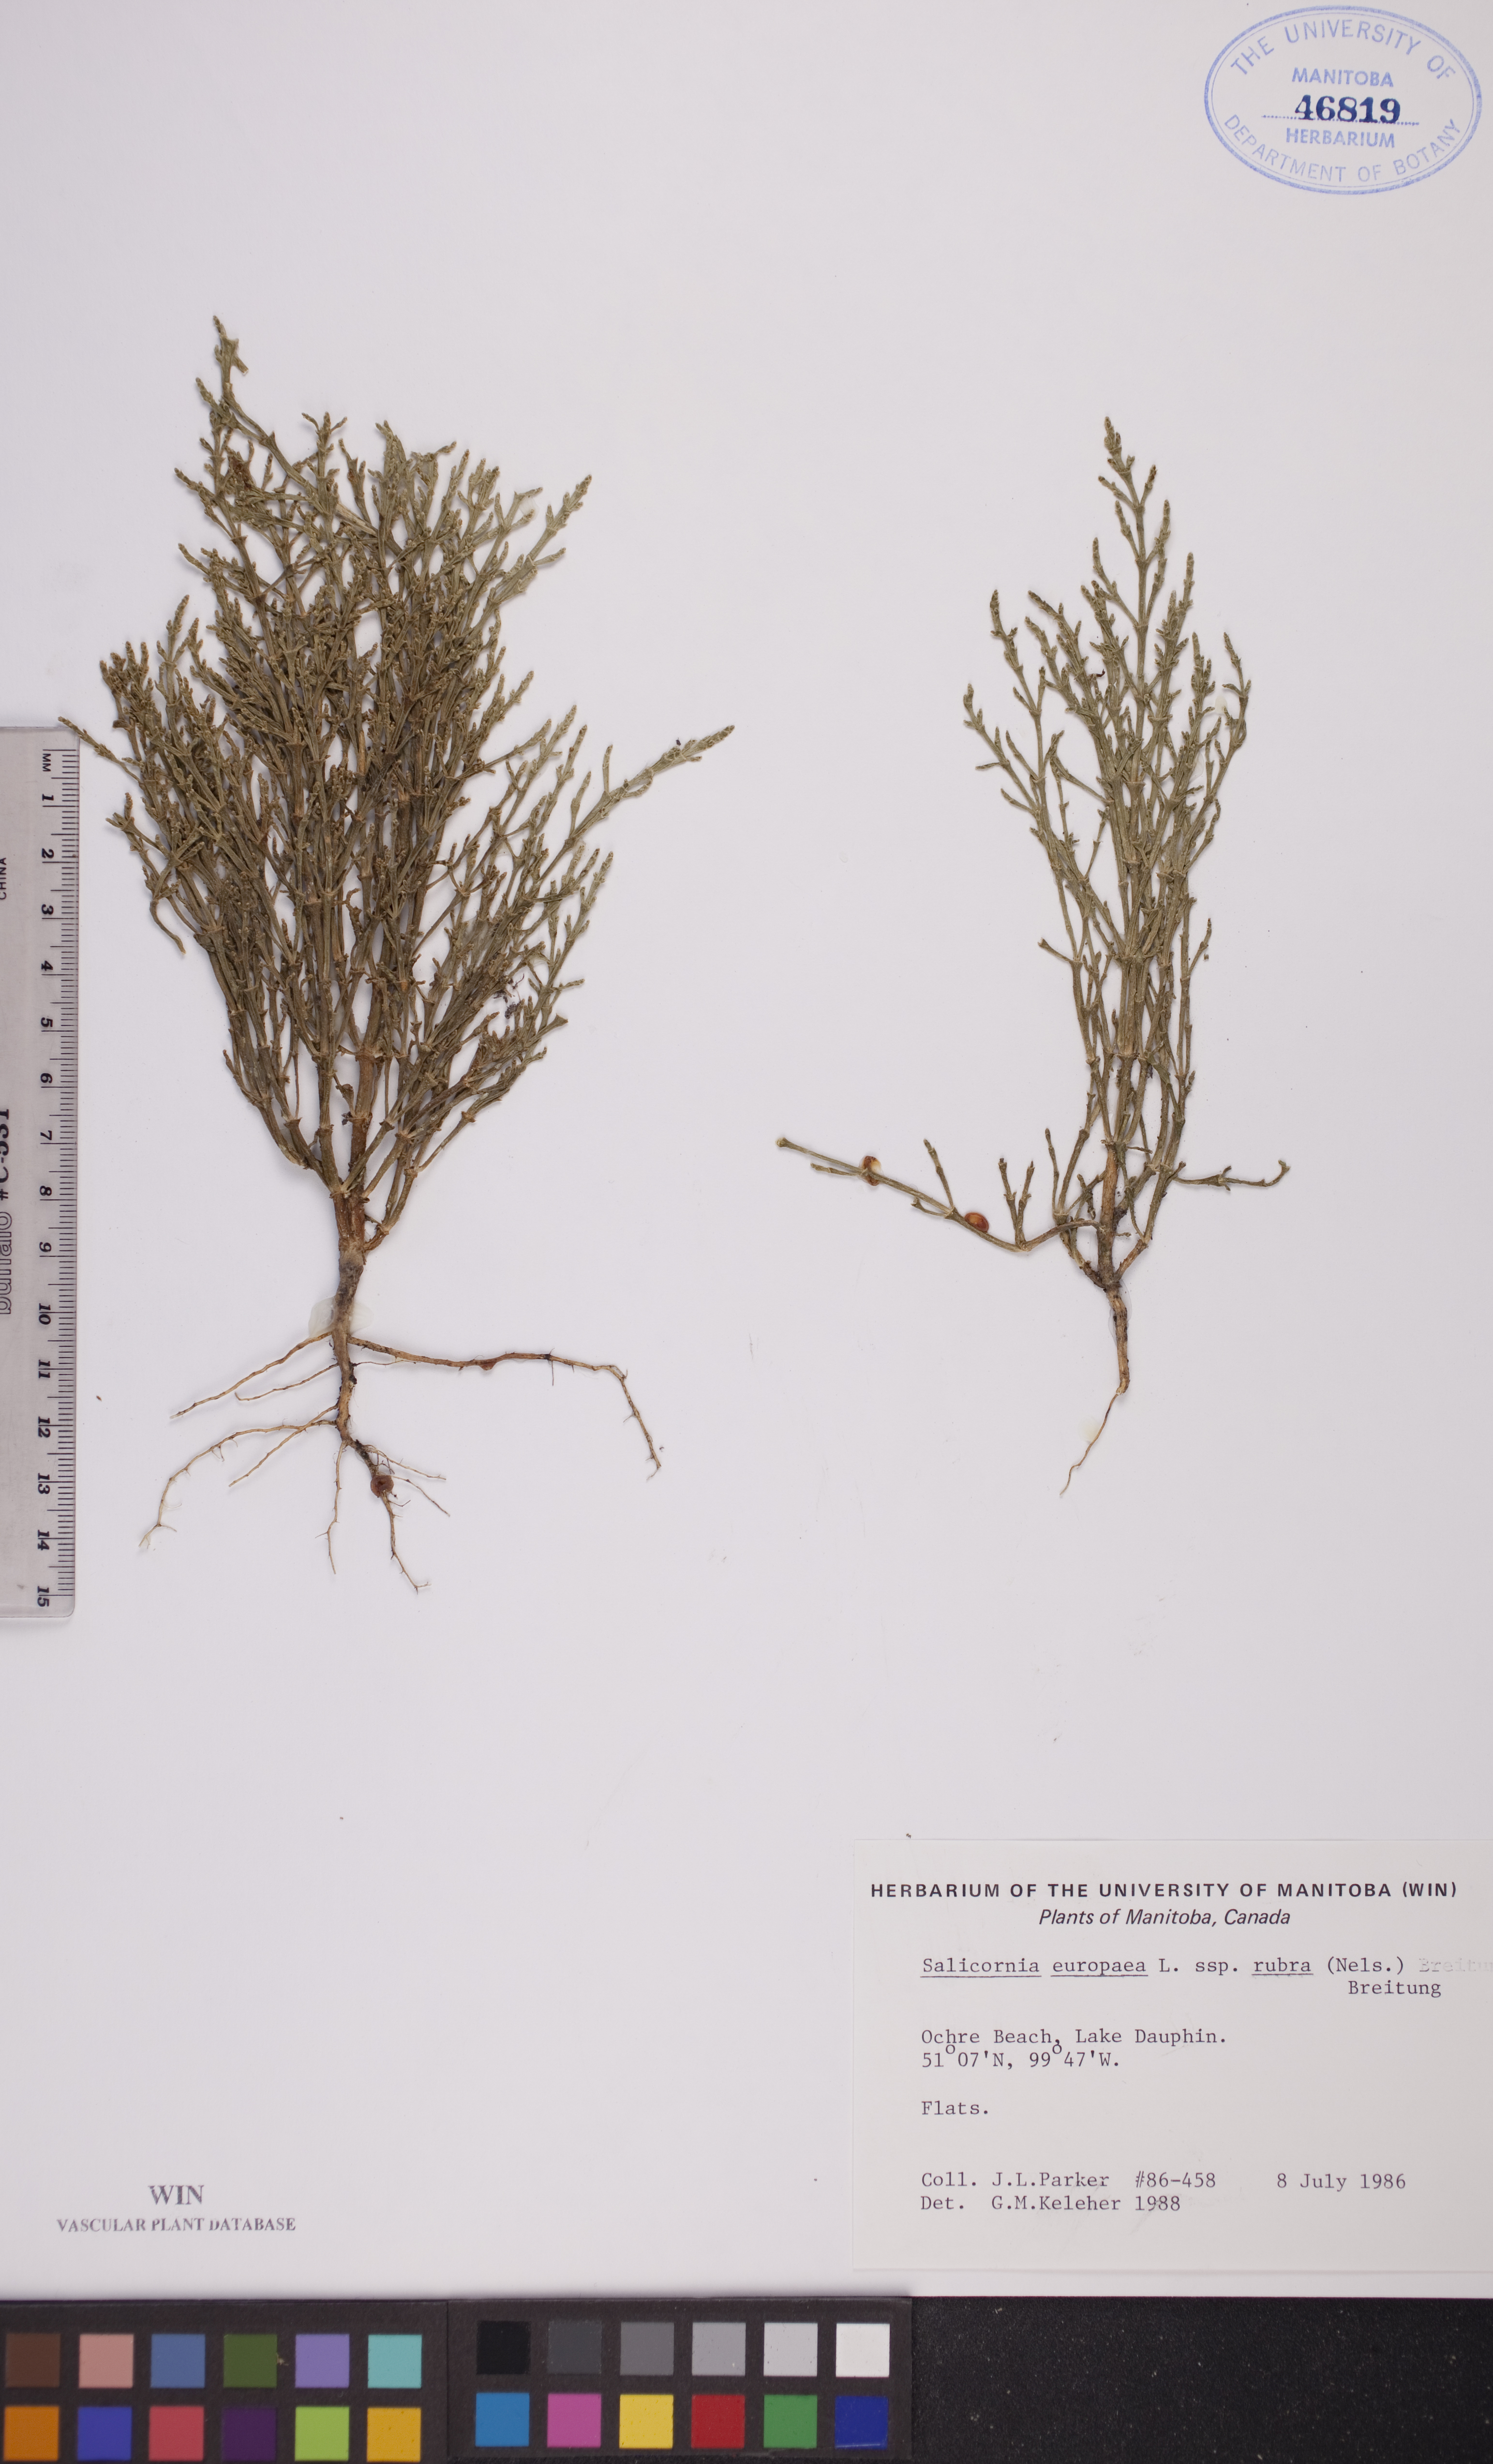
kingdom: Plantae
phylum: Tracheophyta
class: Magnoliopsida
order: Caryophyllales
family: Amaranthaceae
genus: Salicornia
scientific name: Salicornia rubra
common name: Red glasswort
